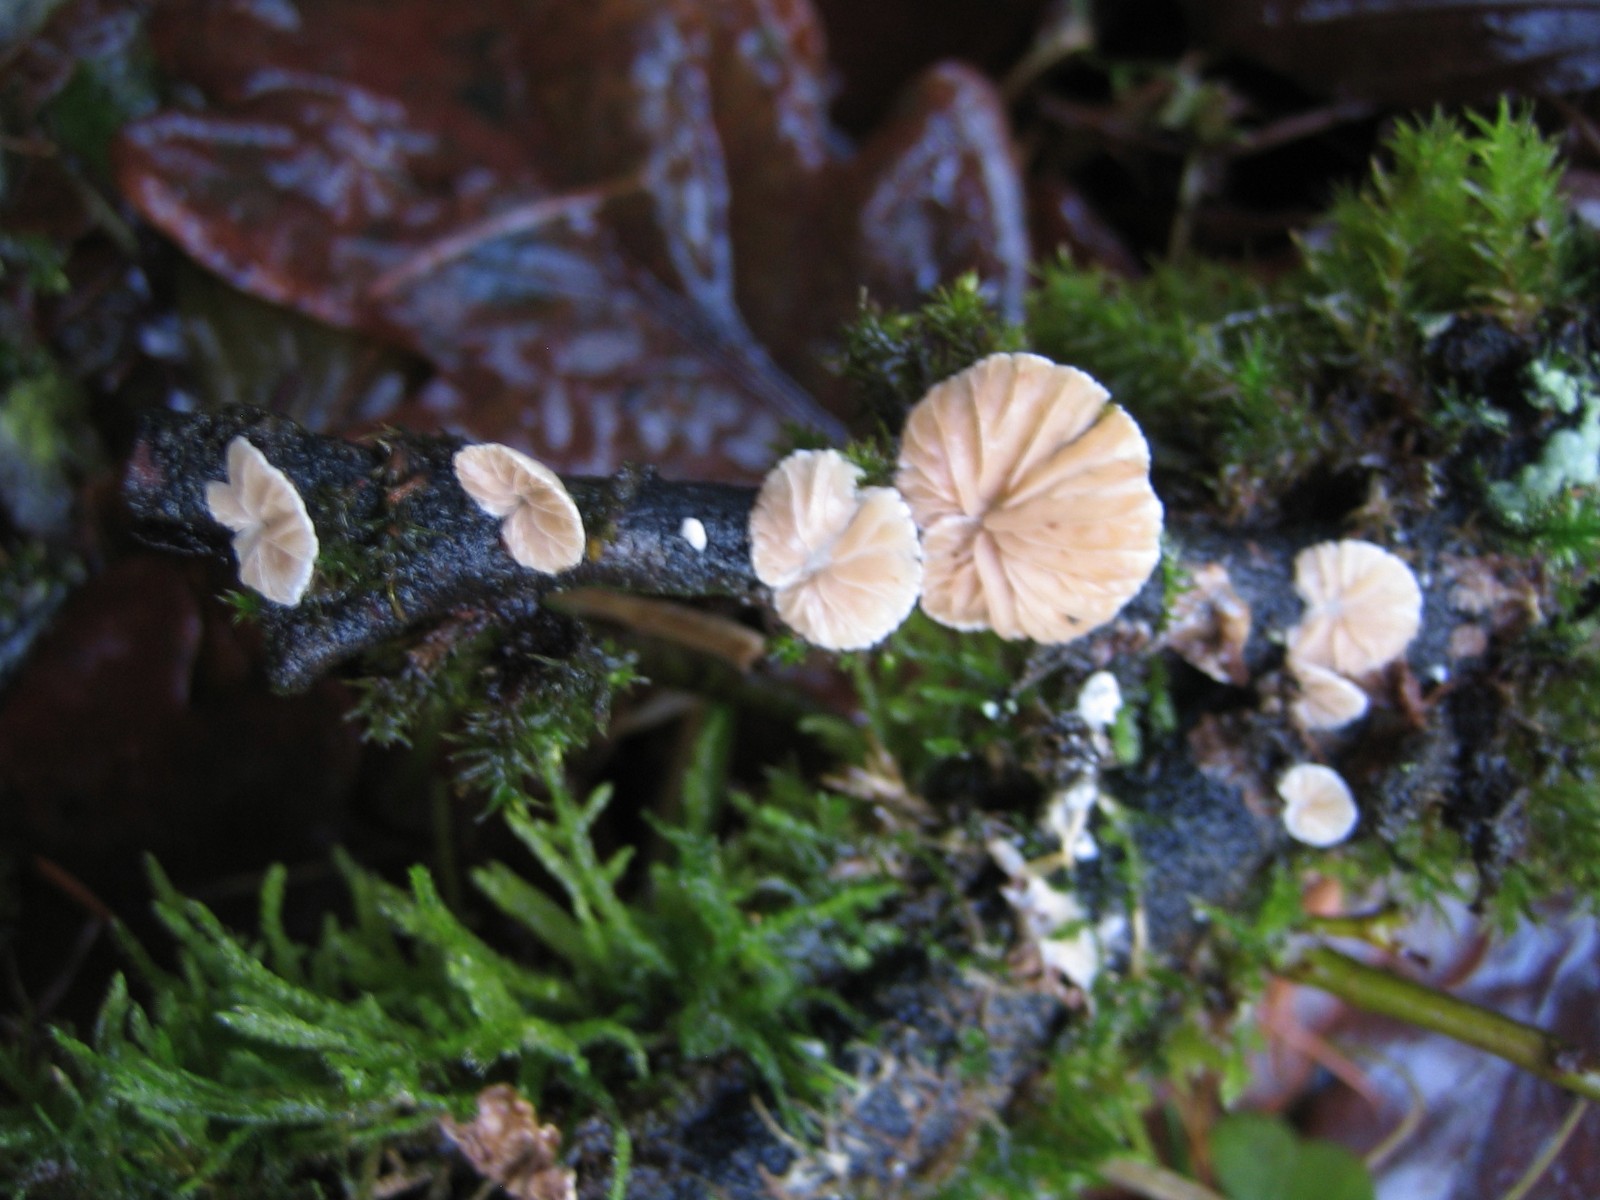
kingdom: Fungi
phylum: Basidiomycota
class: Agaricomycetes
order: Agaricales
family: Crepidotaceae
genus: Crepidotus
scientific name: Crepidotus
